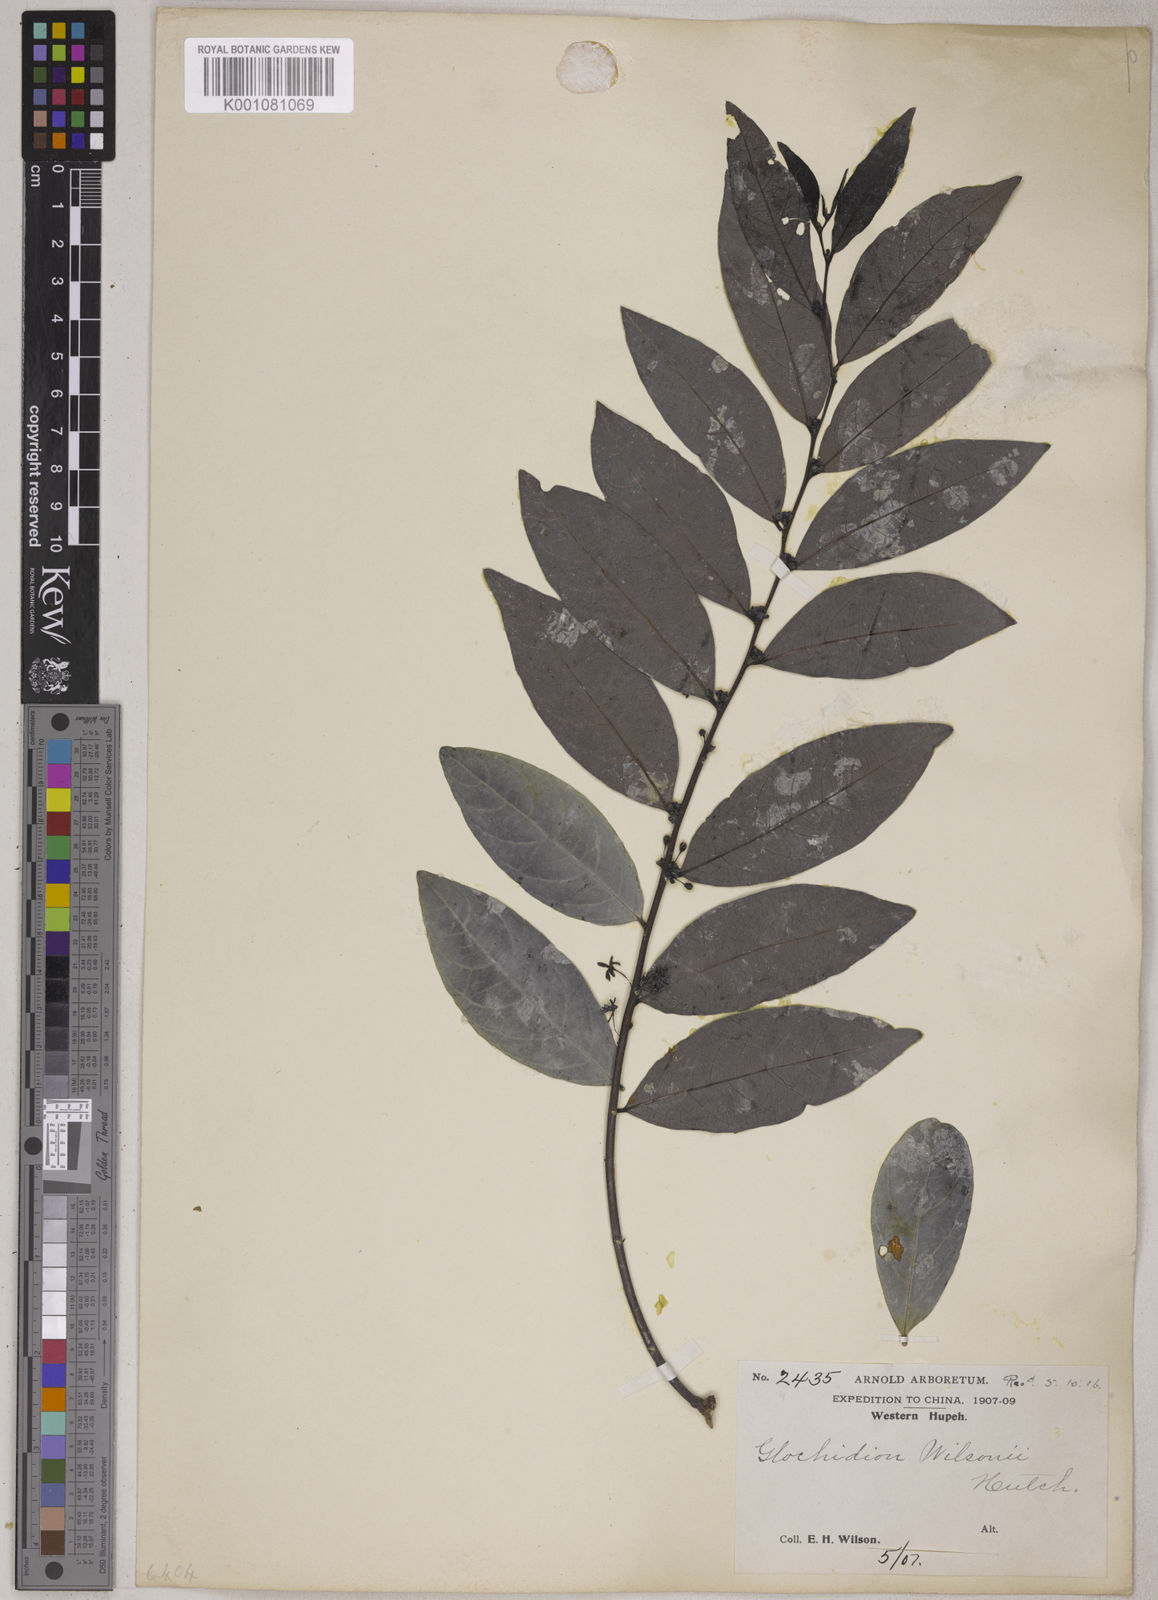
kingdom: Plantae
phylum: Tracheophyta
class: Magnoliopsida
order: Malpighiales
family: Phyllanthaceae
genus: Glochidion
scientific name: Glochidion wilsonii
